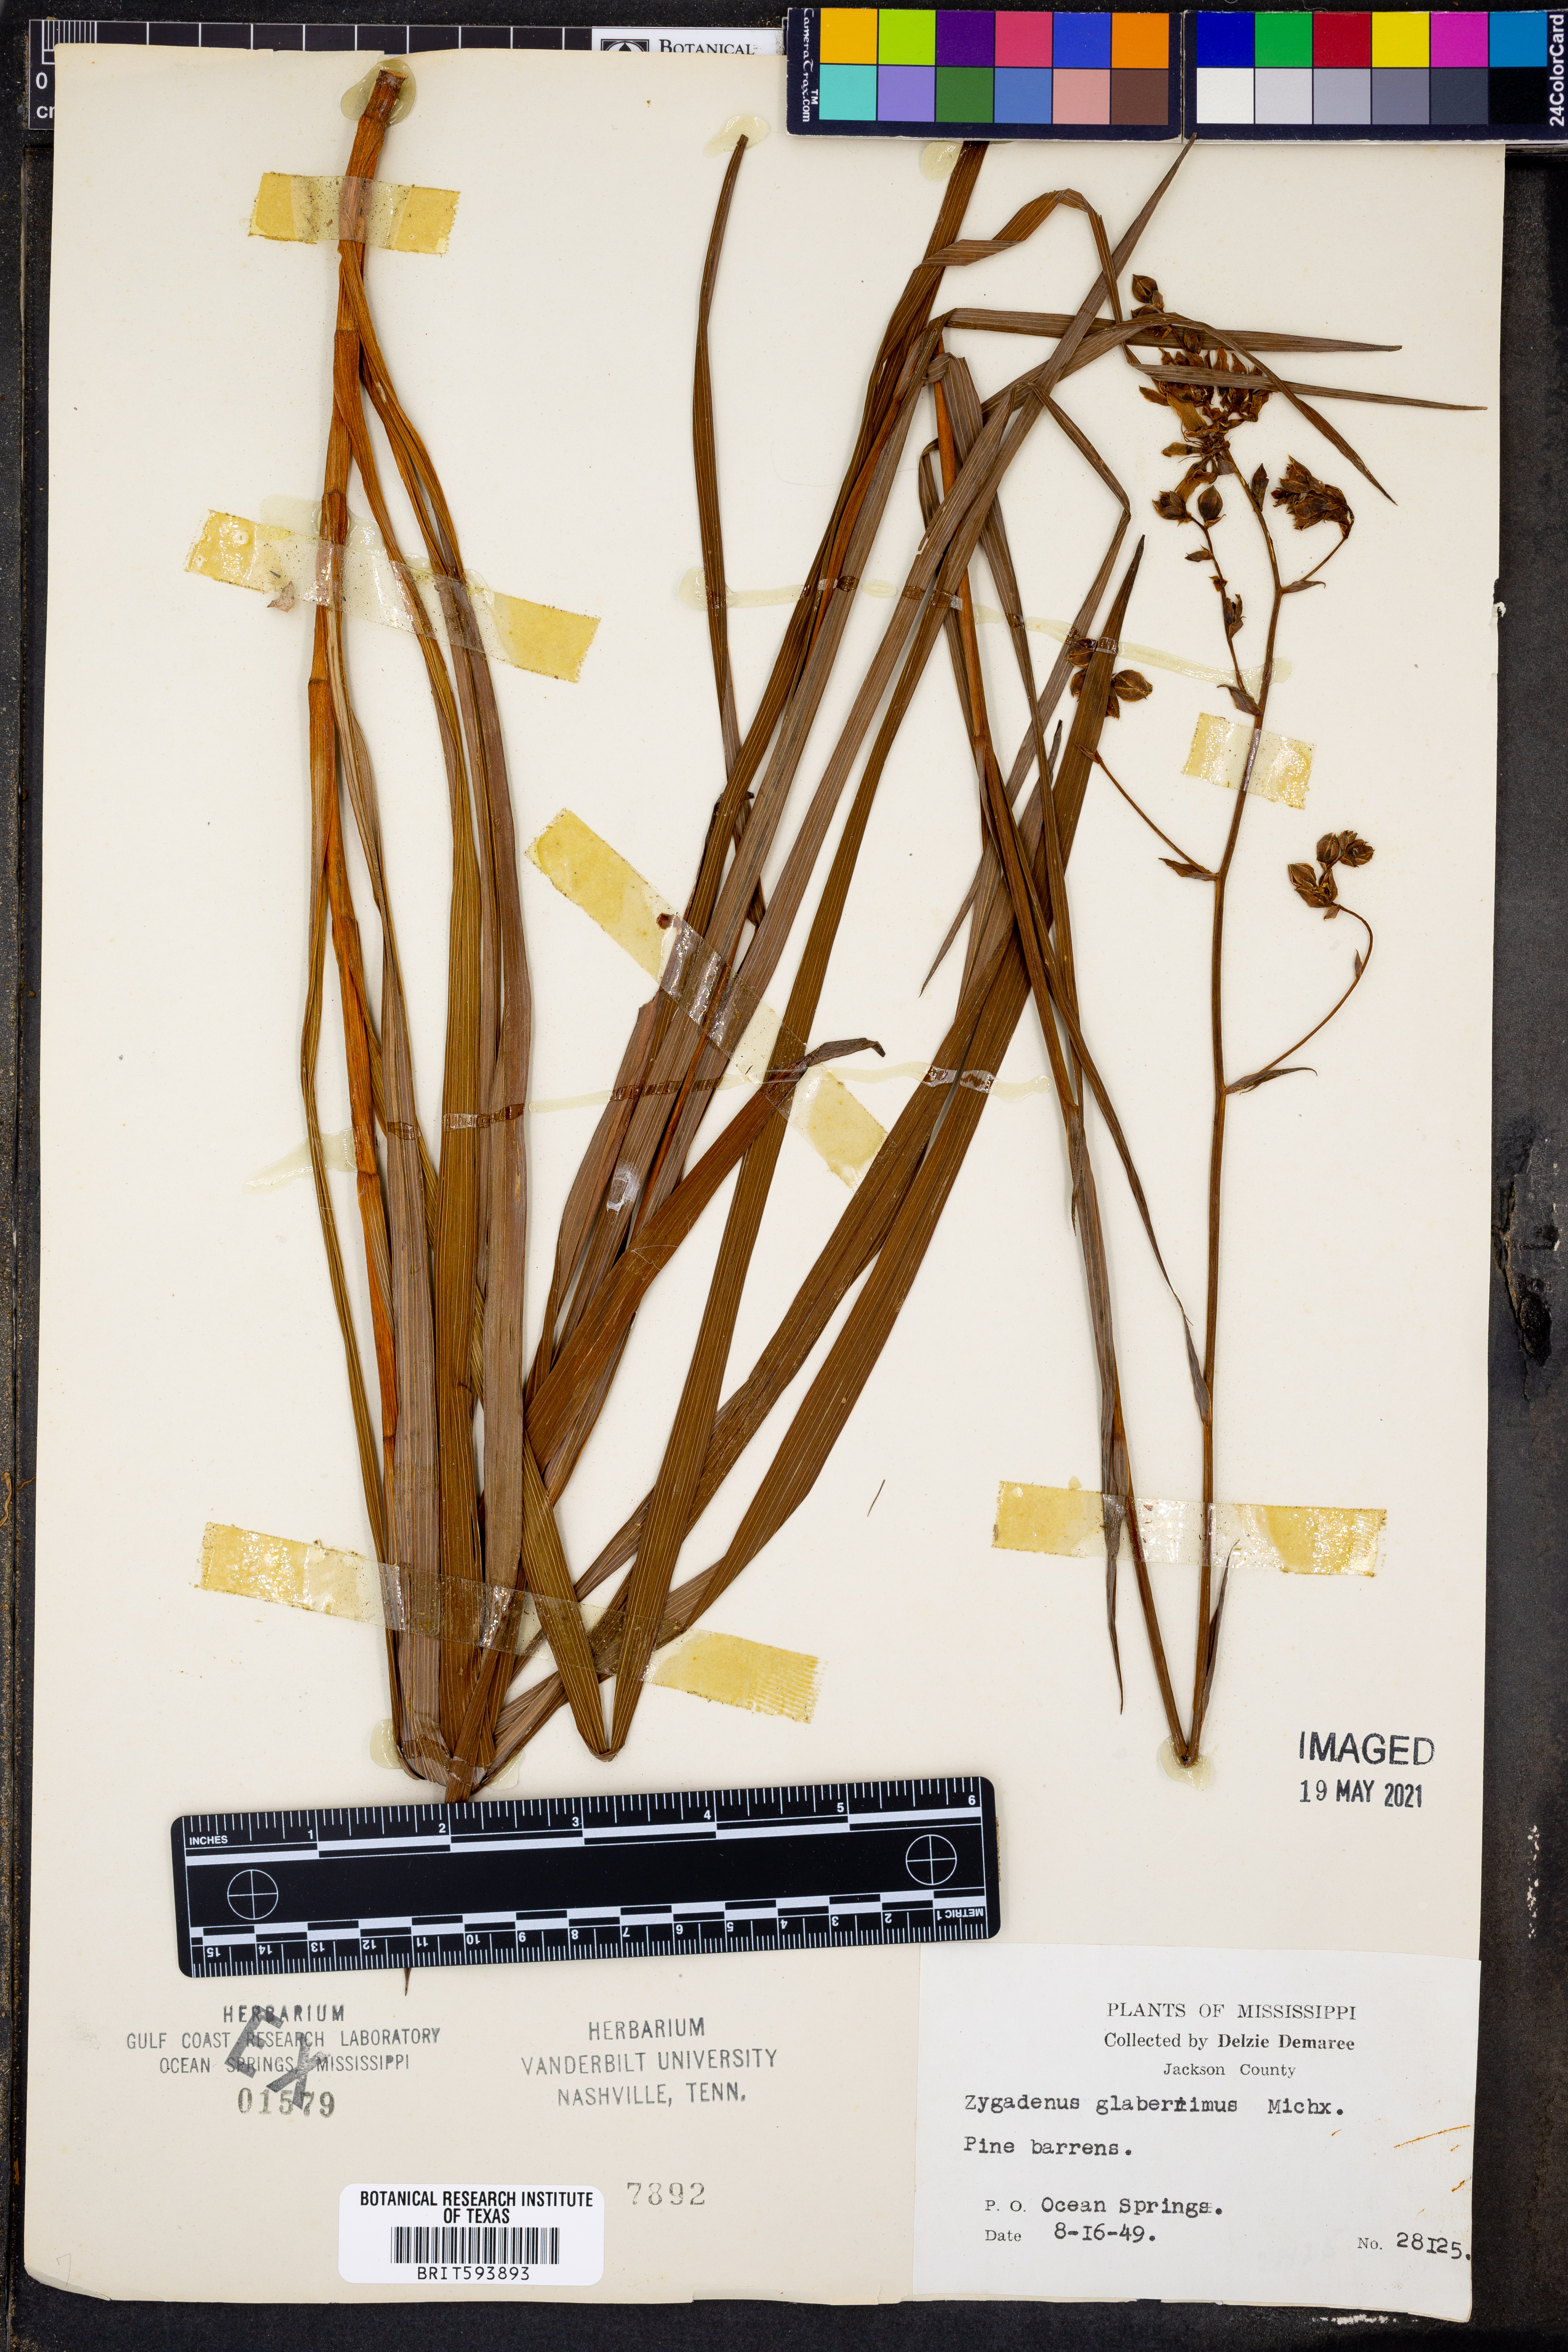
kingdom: Plantae
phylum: Tracheophyta
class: Liliopsida
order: Liliales
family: Melanthiaceae
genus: Zigadenus
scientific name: Zigadenus glaberrimus
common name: Sandbog death camas
